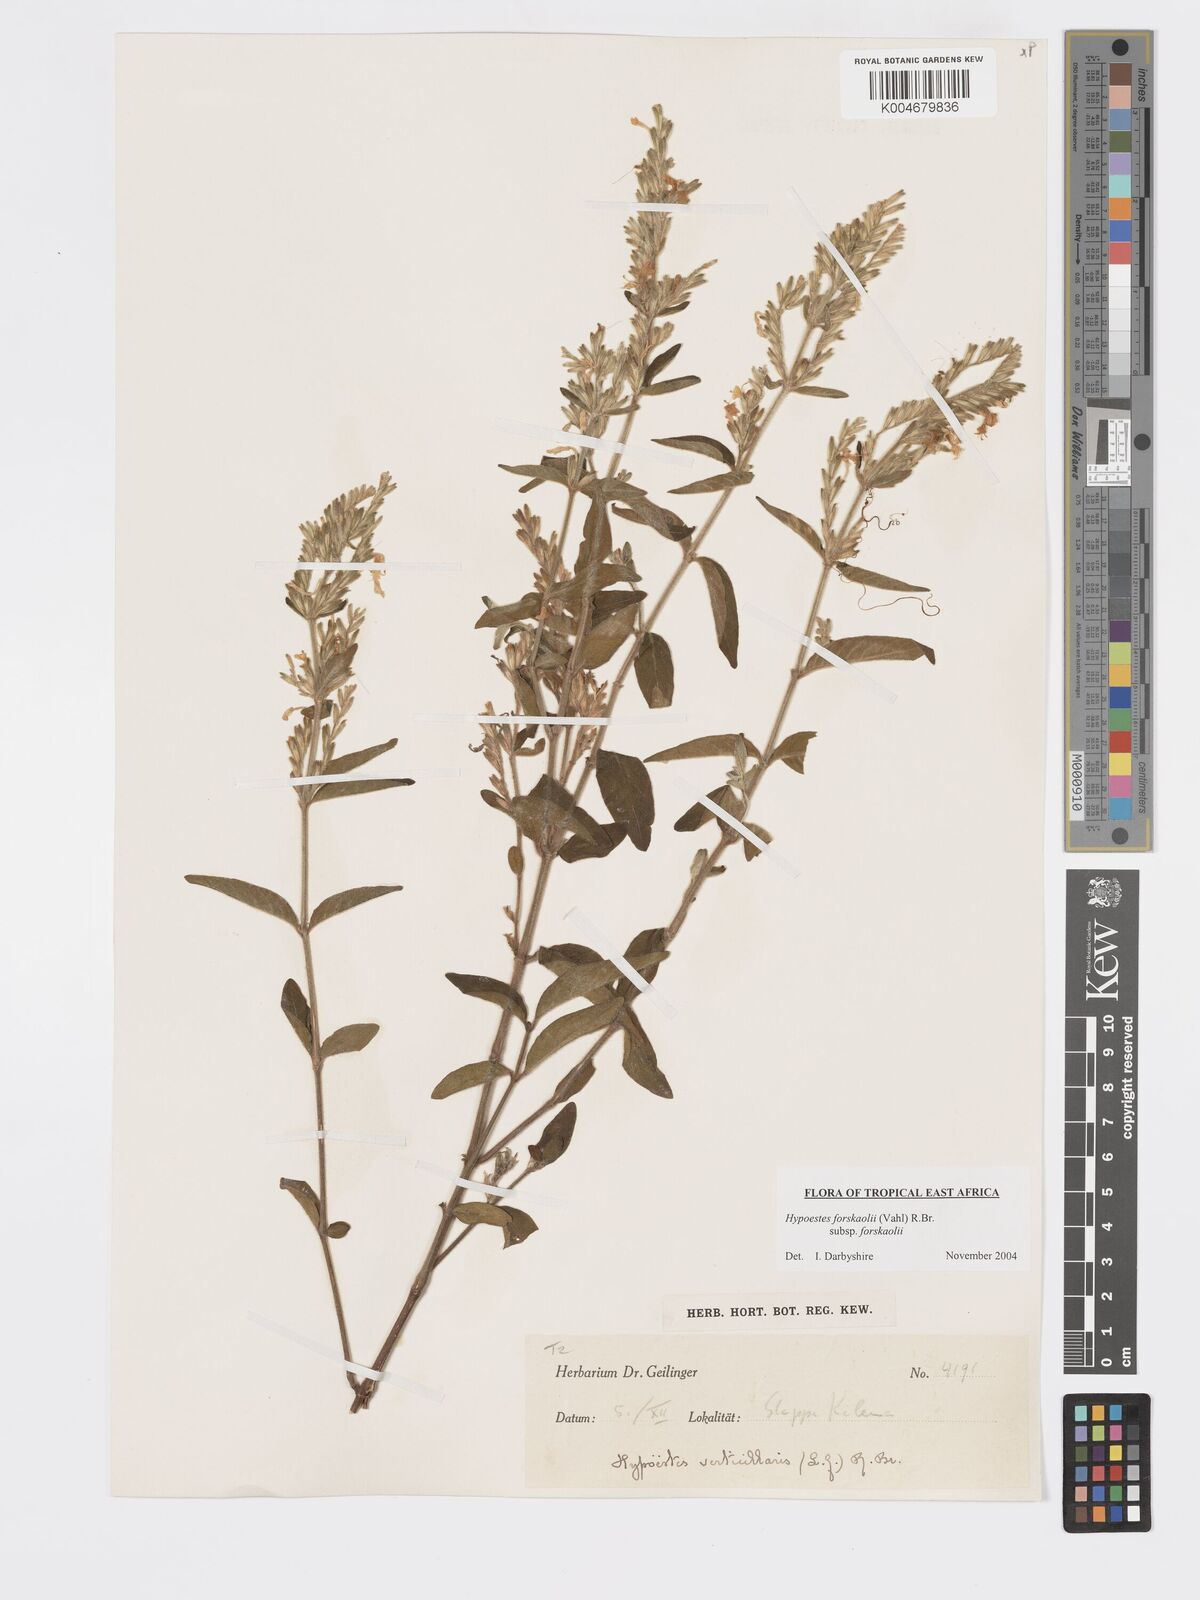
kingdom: Plantae
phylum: Tracheophyta
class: Magnoliopsida
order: Lamiales
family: Acanthaceae
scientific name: Acanthaceae
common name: Acanthaceae
